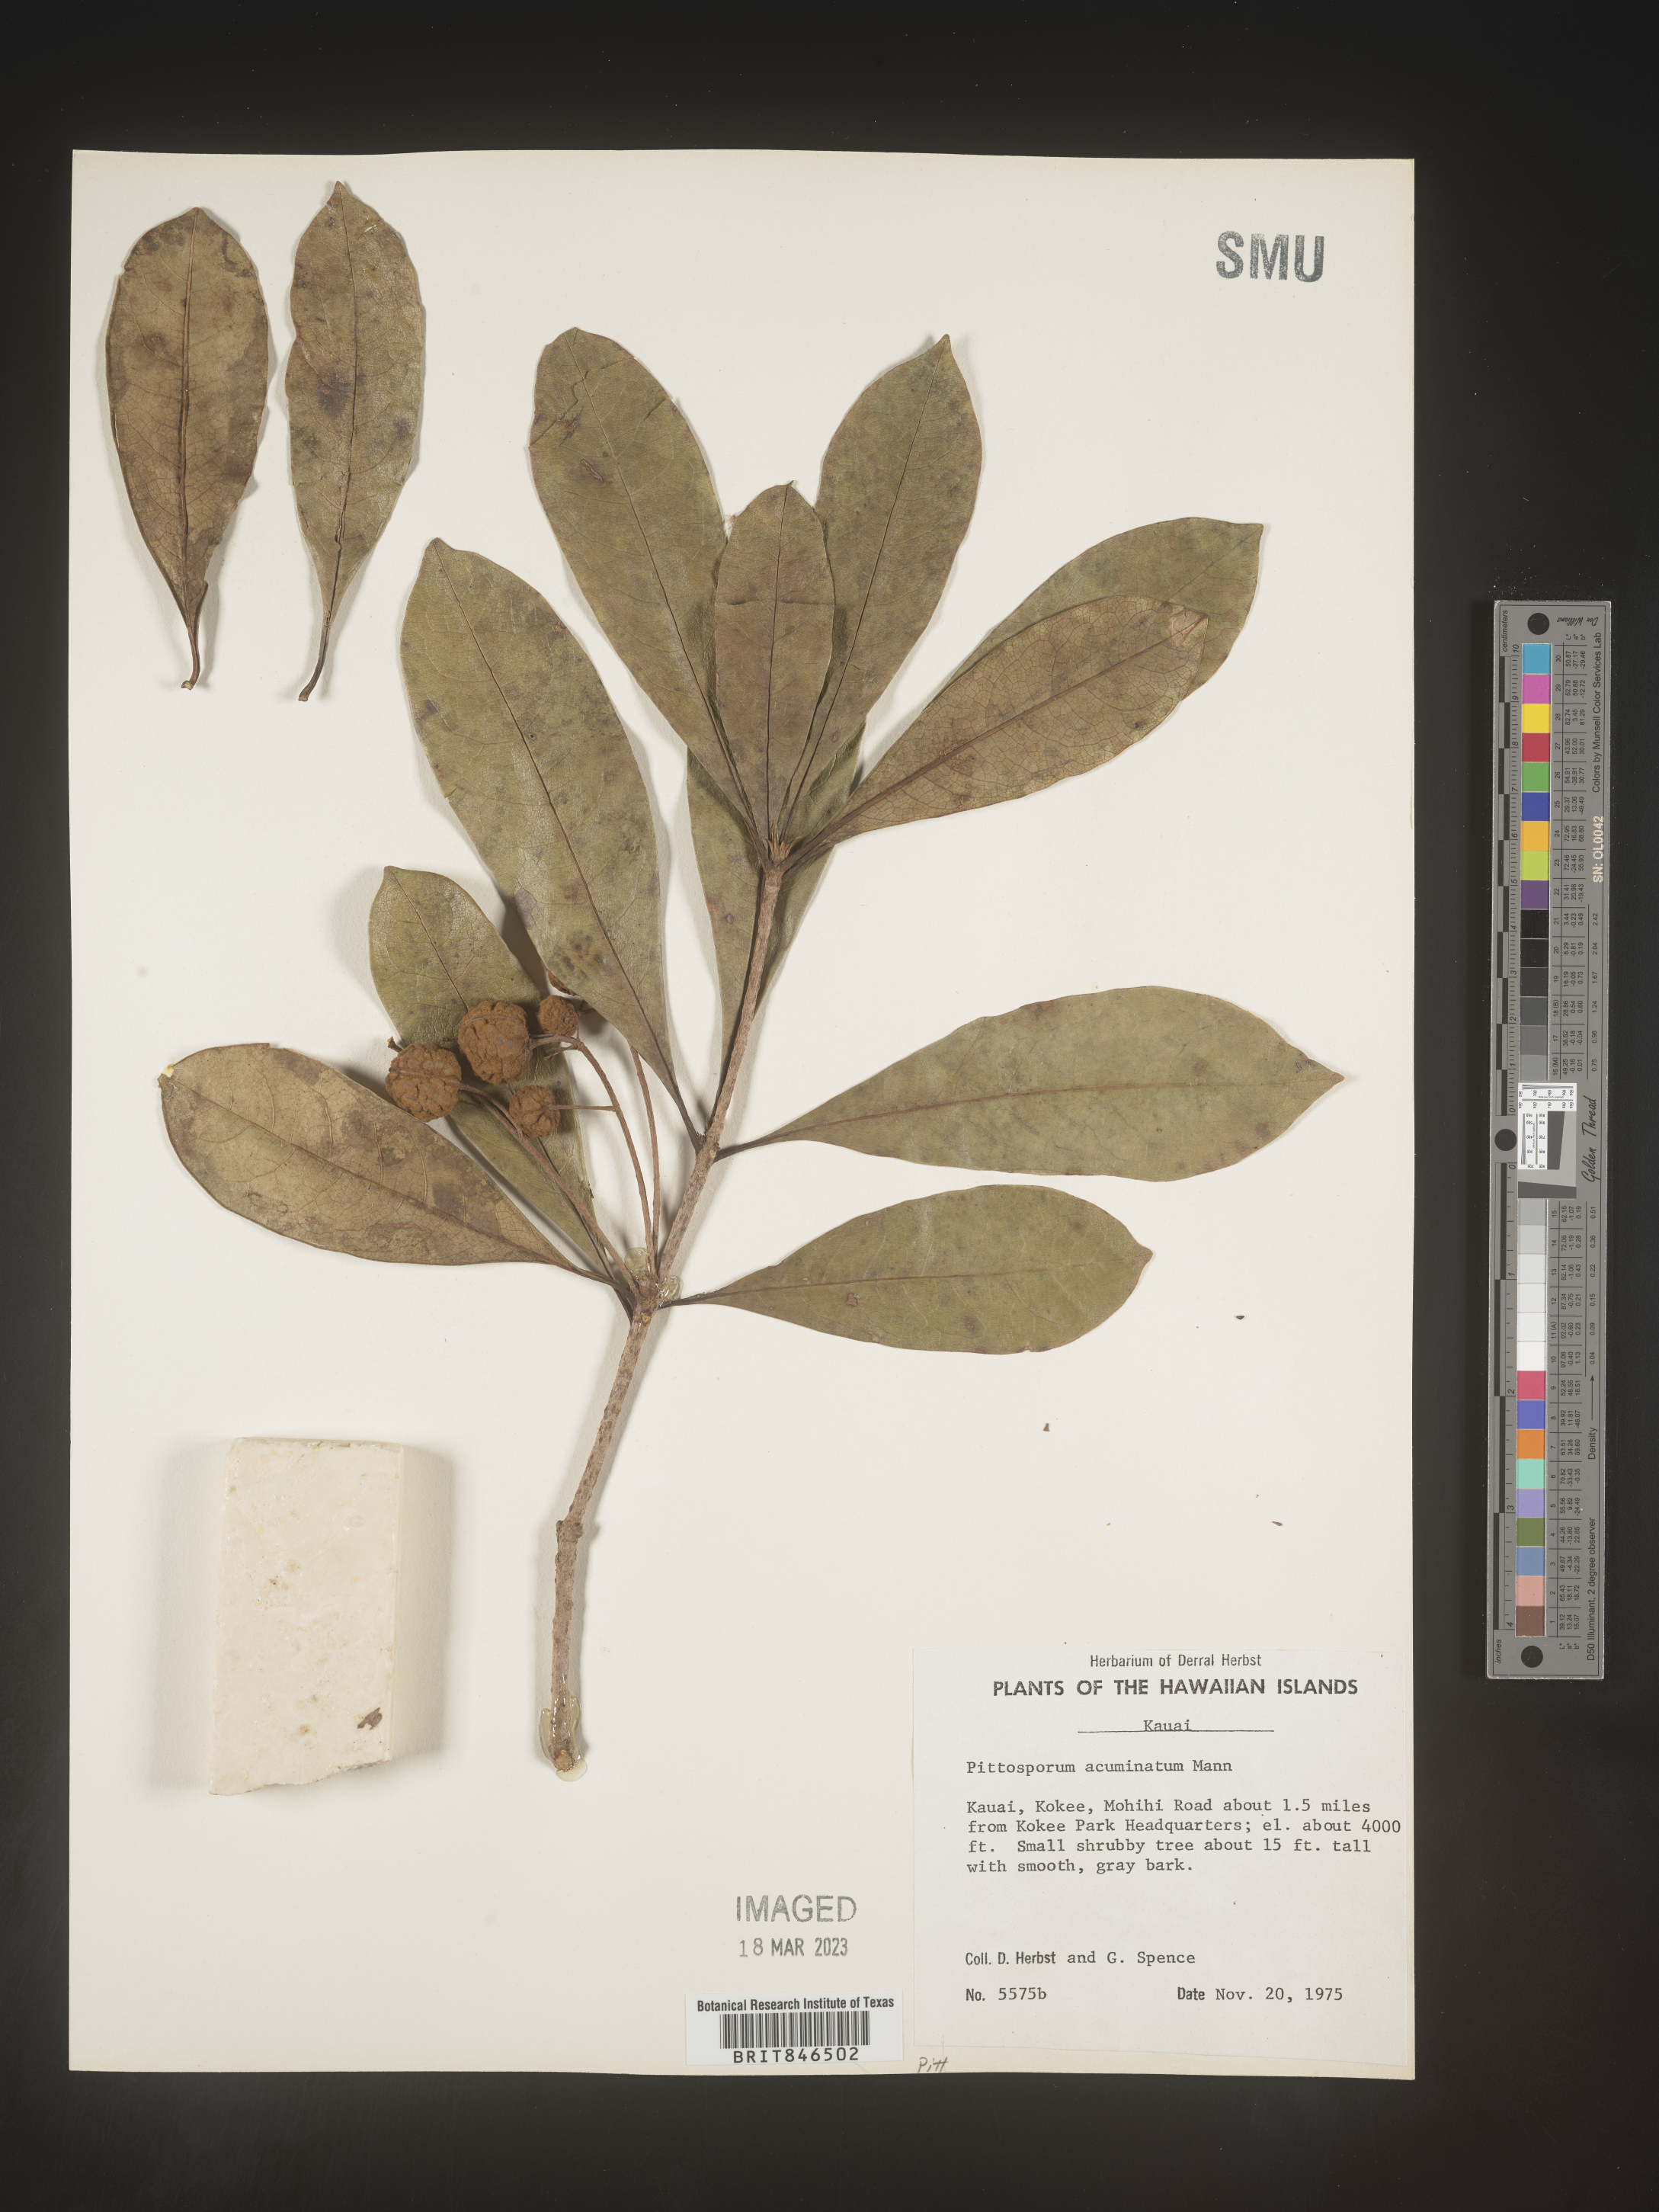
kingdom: Plantae
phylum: Tracheophyta
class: Magnoliopsida
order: Apiales
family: Pittosporaceae
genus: Pittosporum
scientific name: Pittosporum
